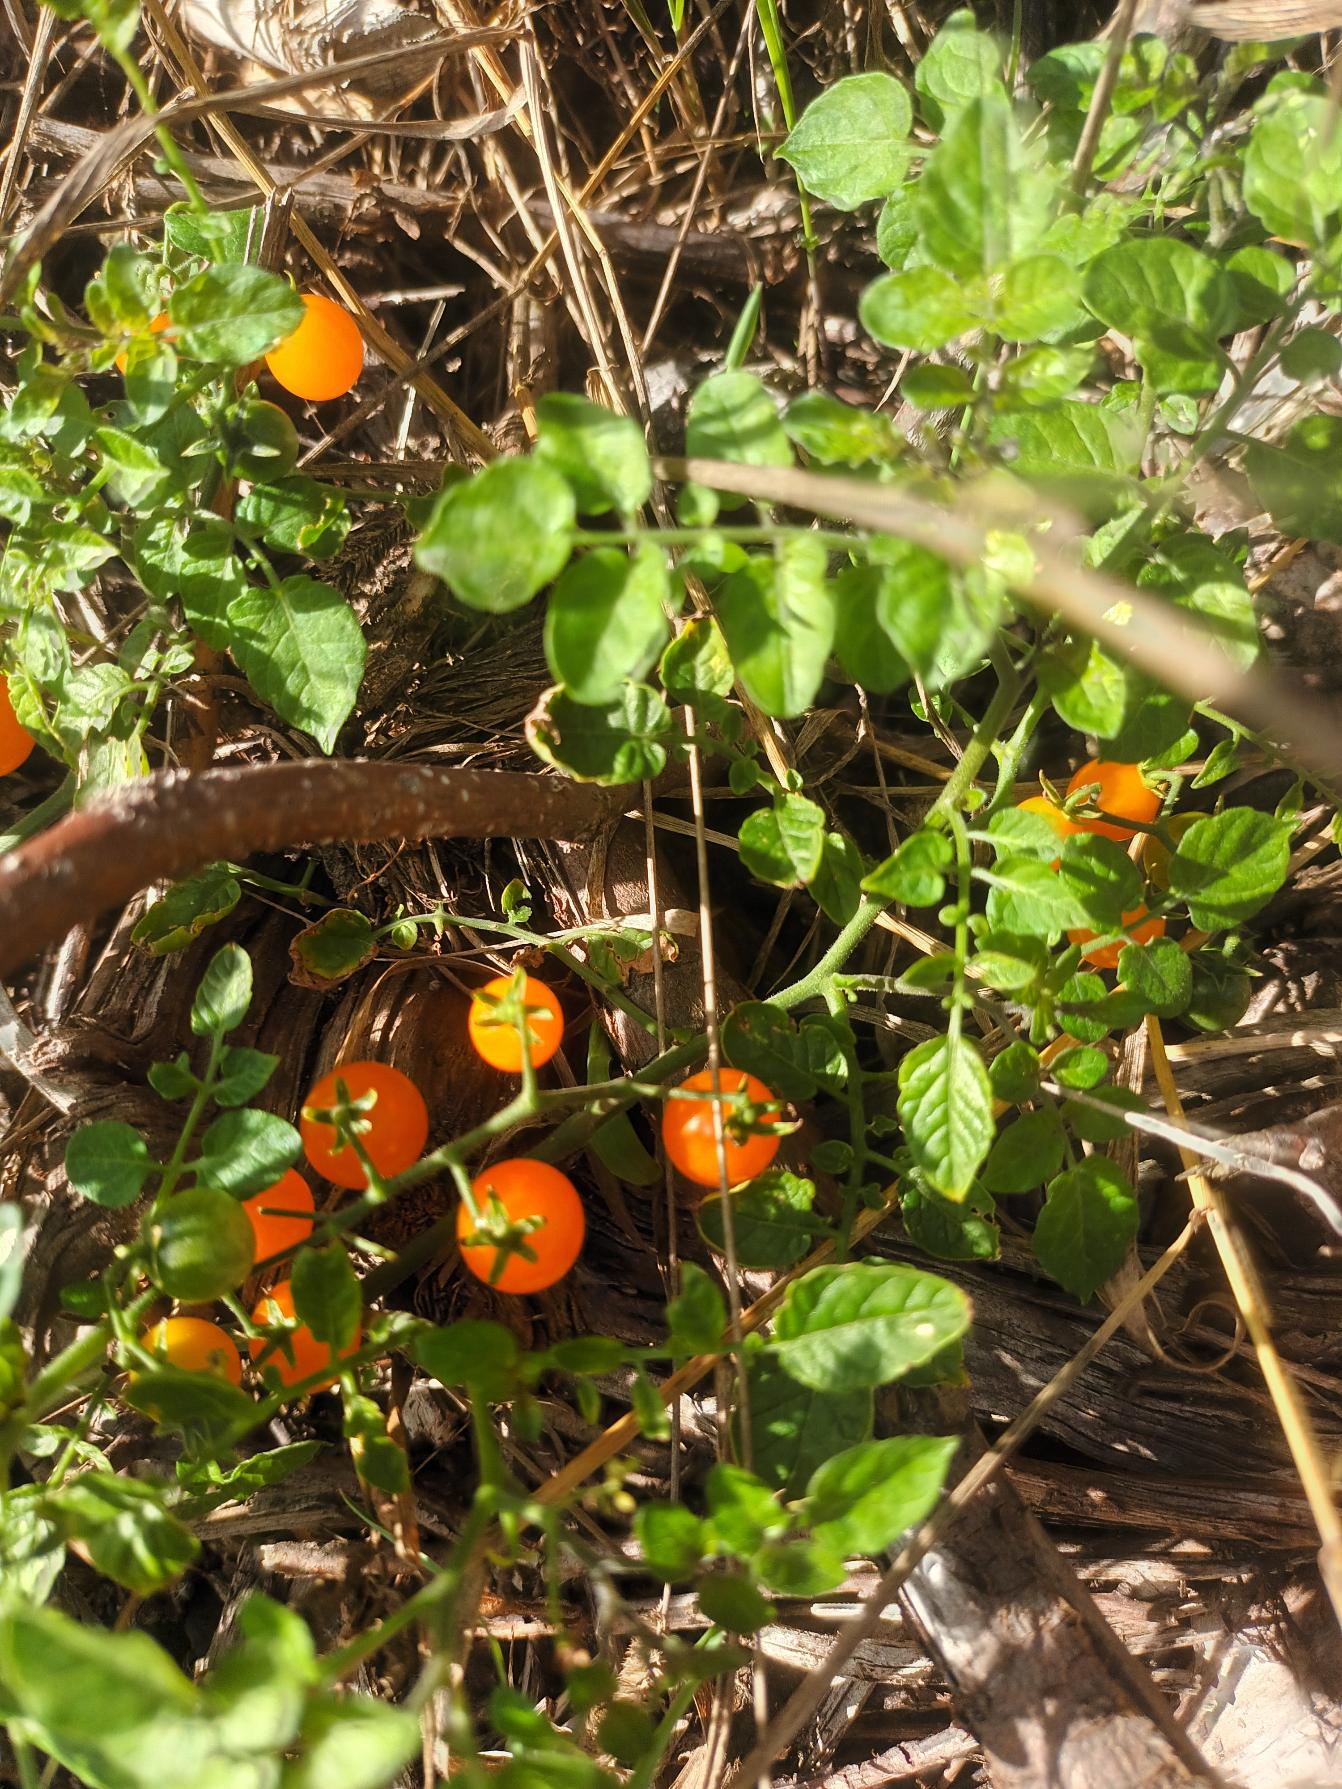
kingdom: Plantae
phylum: Tracheophyta
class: Magnoliopsida
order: Solanales
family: Solanaceae
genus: Solanum
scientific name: Solanum pimpinellifolium
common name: Cherry-tomat
